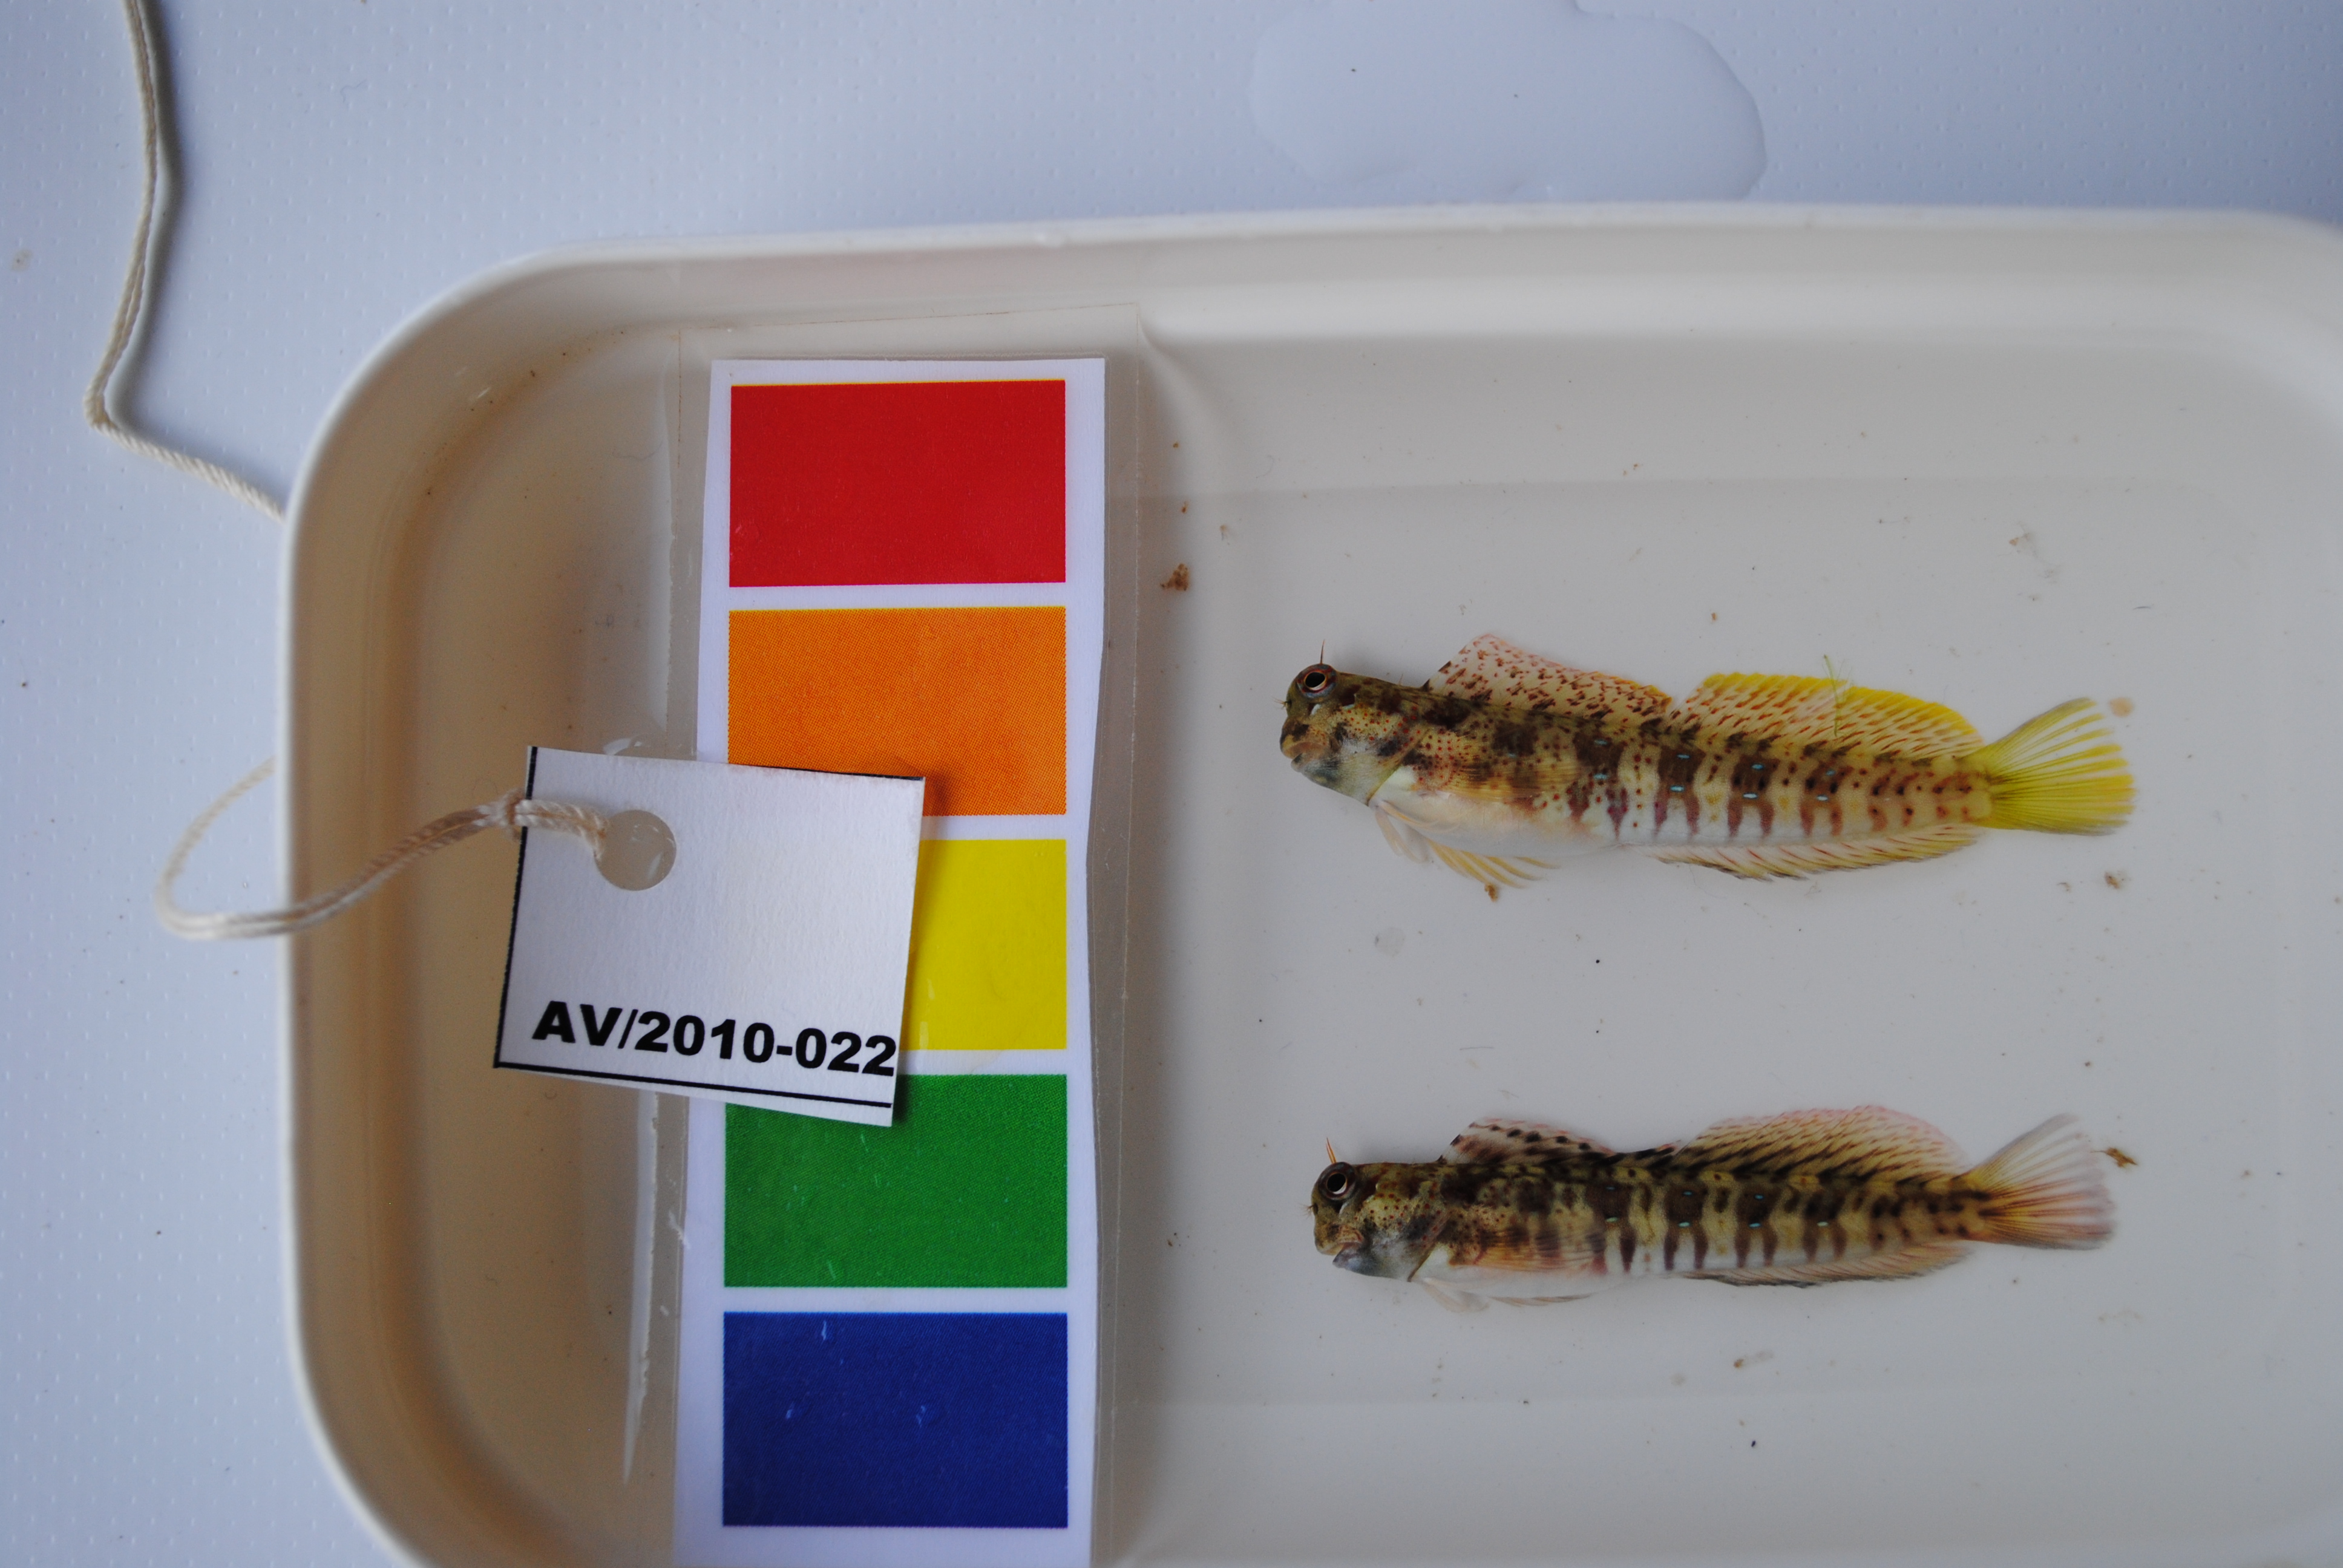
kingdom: Animalia
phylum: Chordata
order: Perciformes
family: Blenniidae
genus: Blenniella
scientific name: Blenniella periophthalmus
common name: Blue-dashed rockskipper
